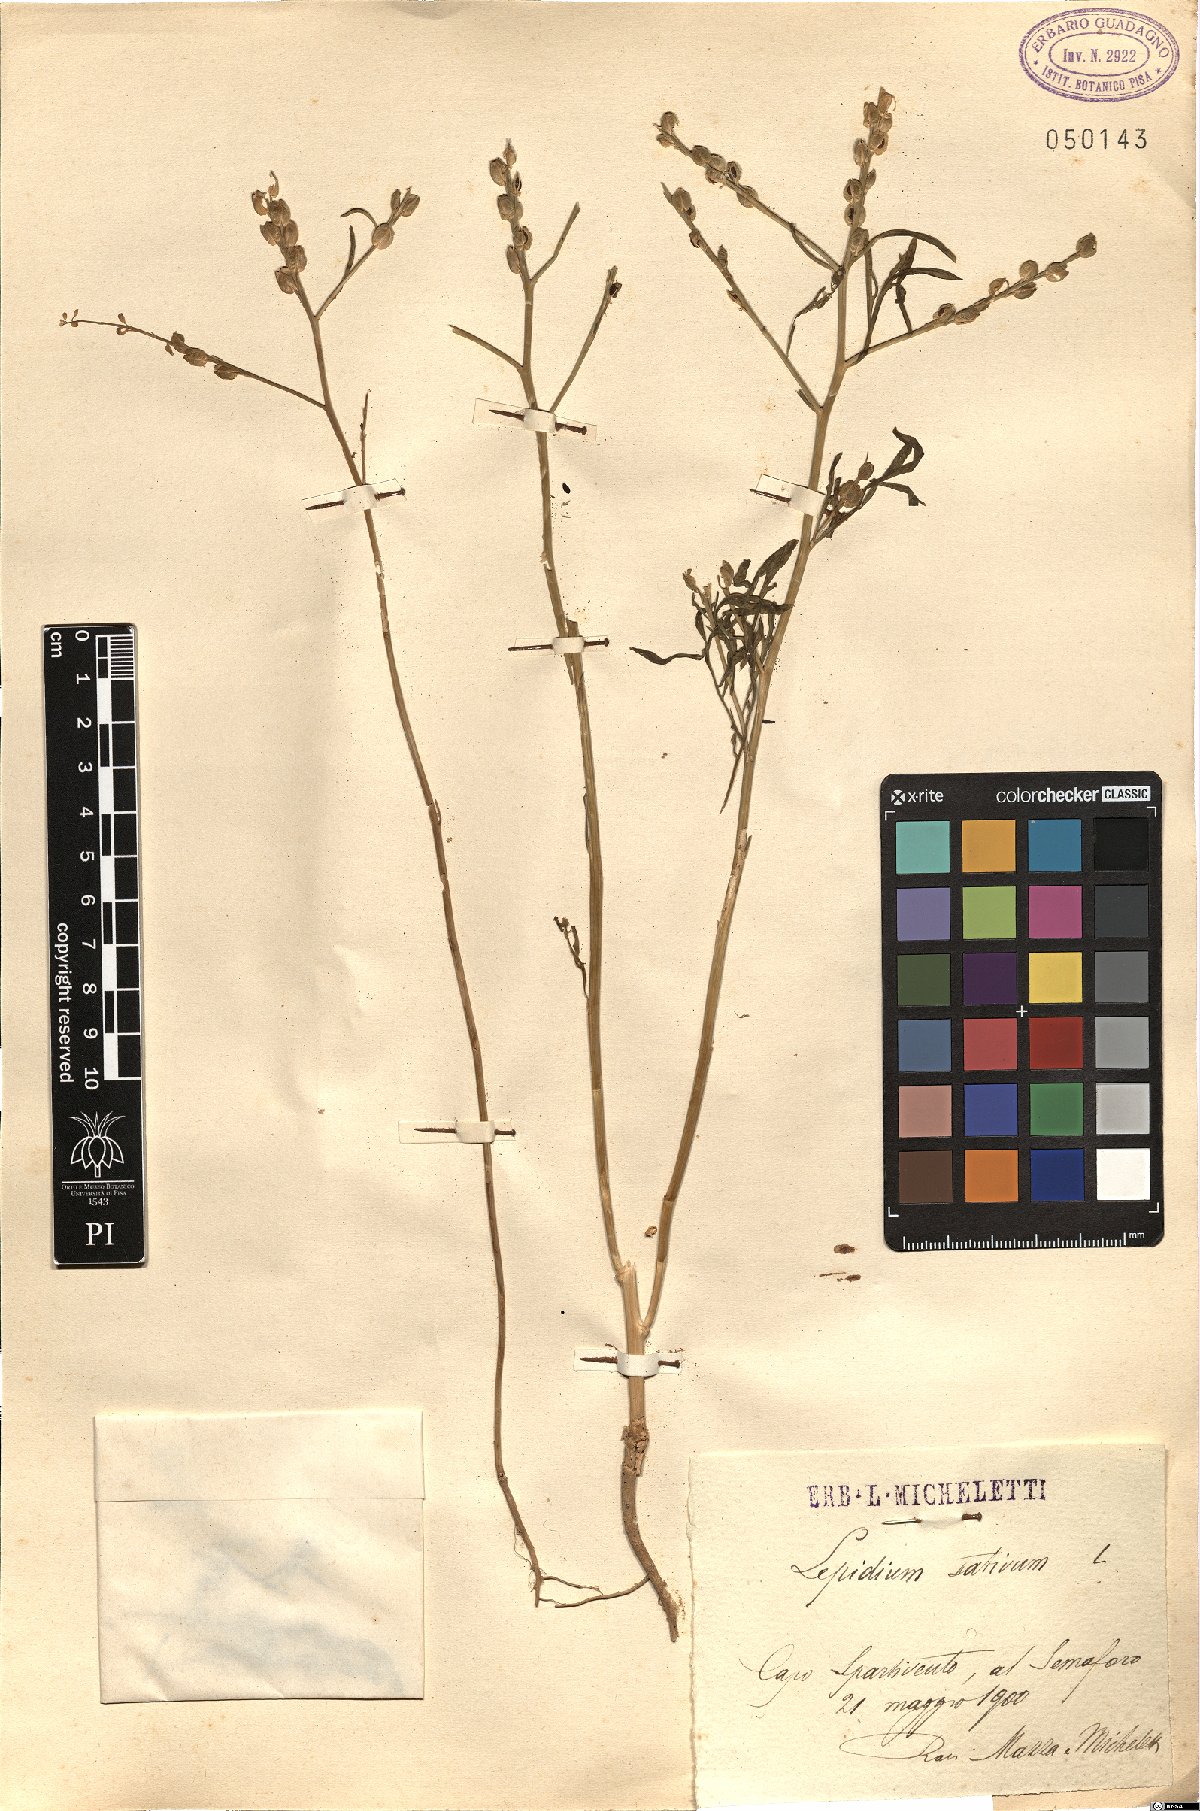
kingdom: Plantae
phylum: Tracheophyta
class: Magnoliopsida
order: Brassicales
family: Brassicaceae
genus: Lepidium
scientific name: Lepidium sativum
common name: Garden cress
